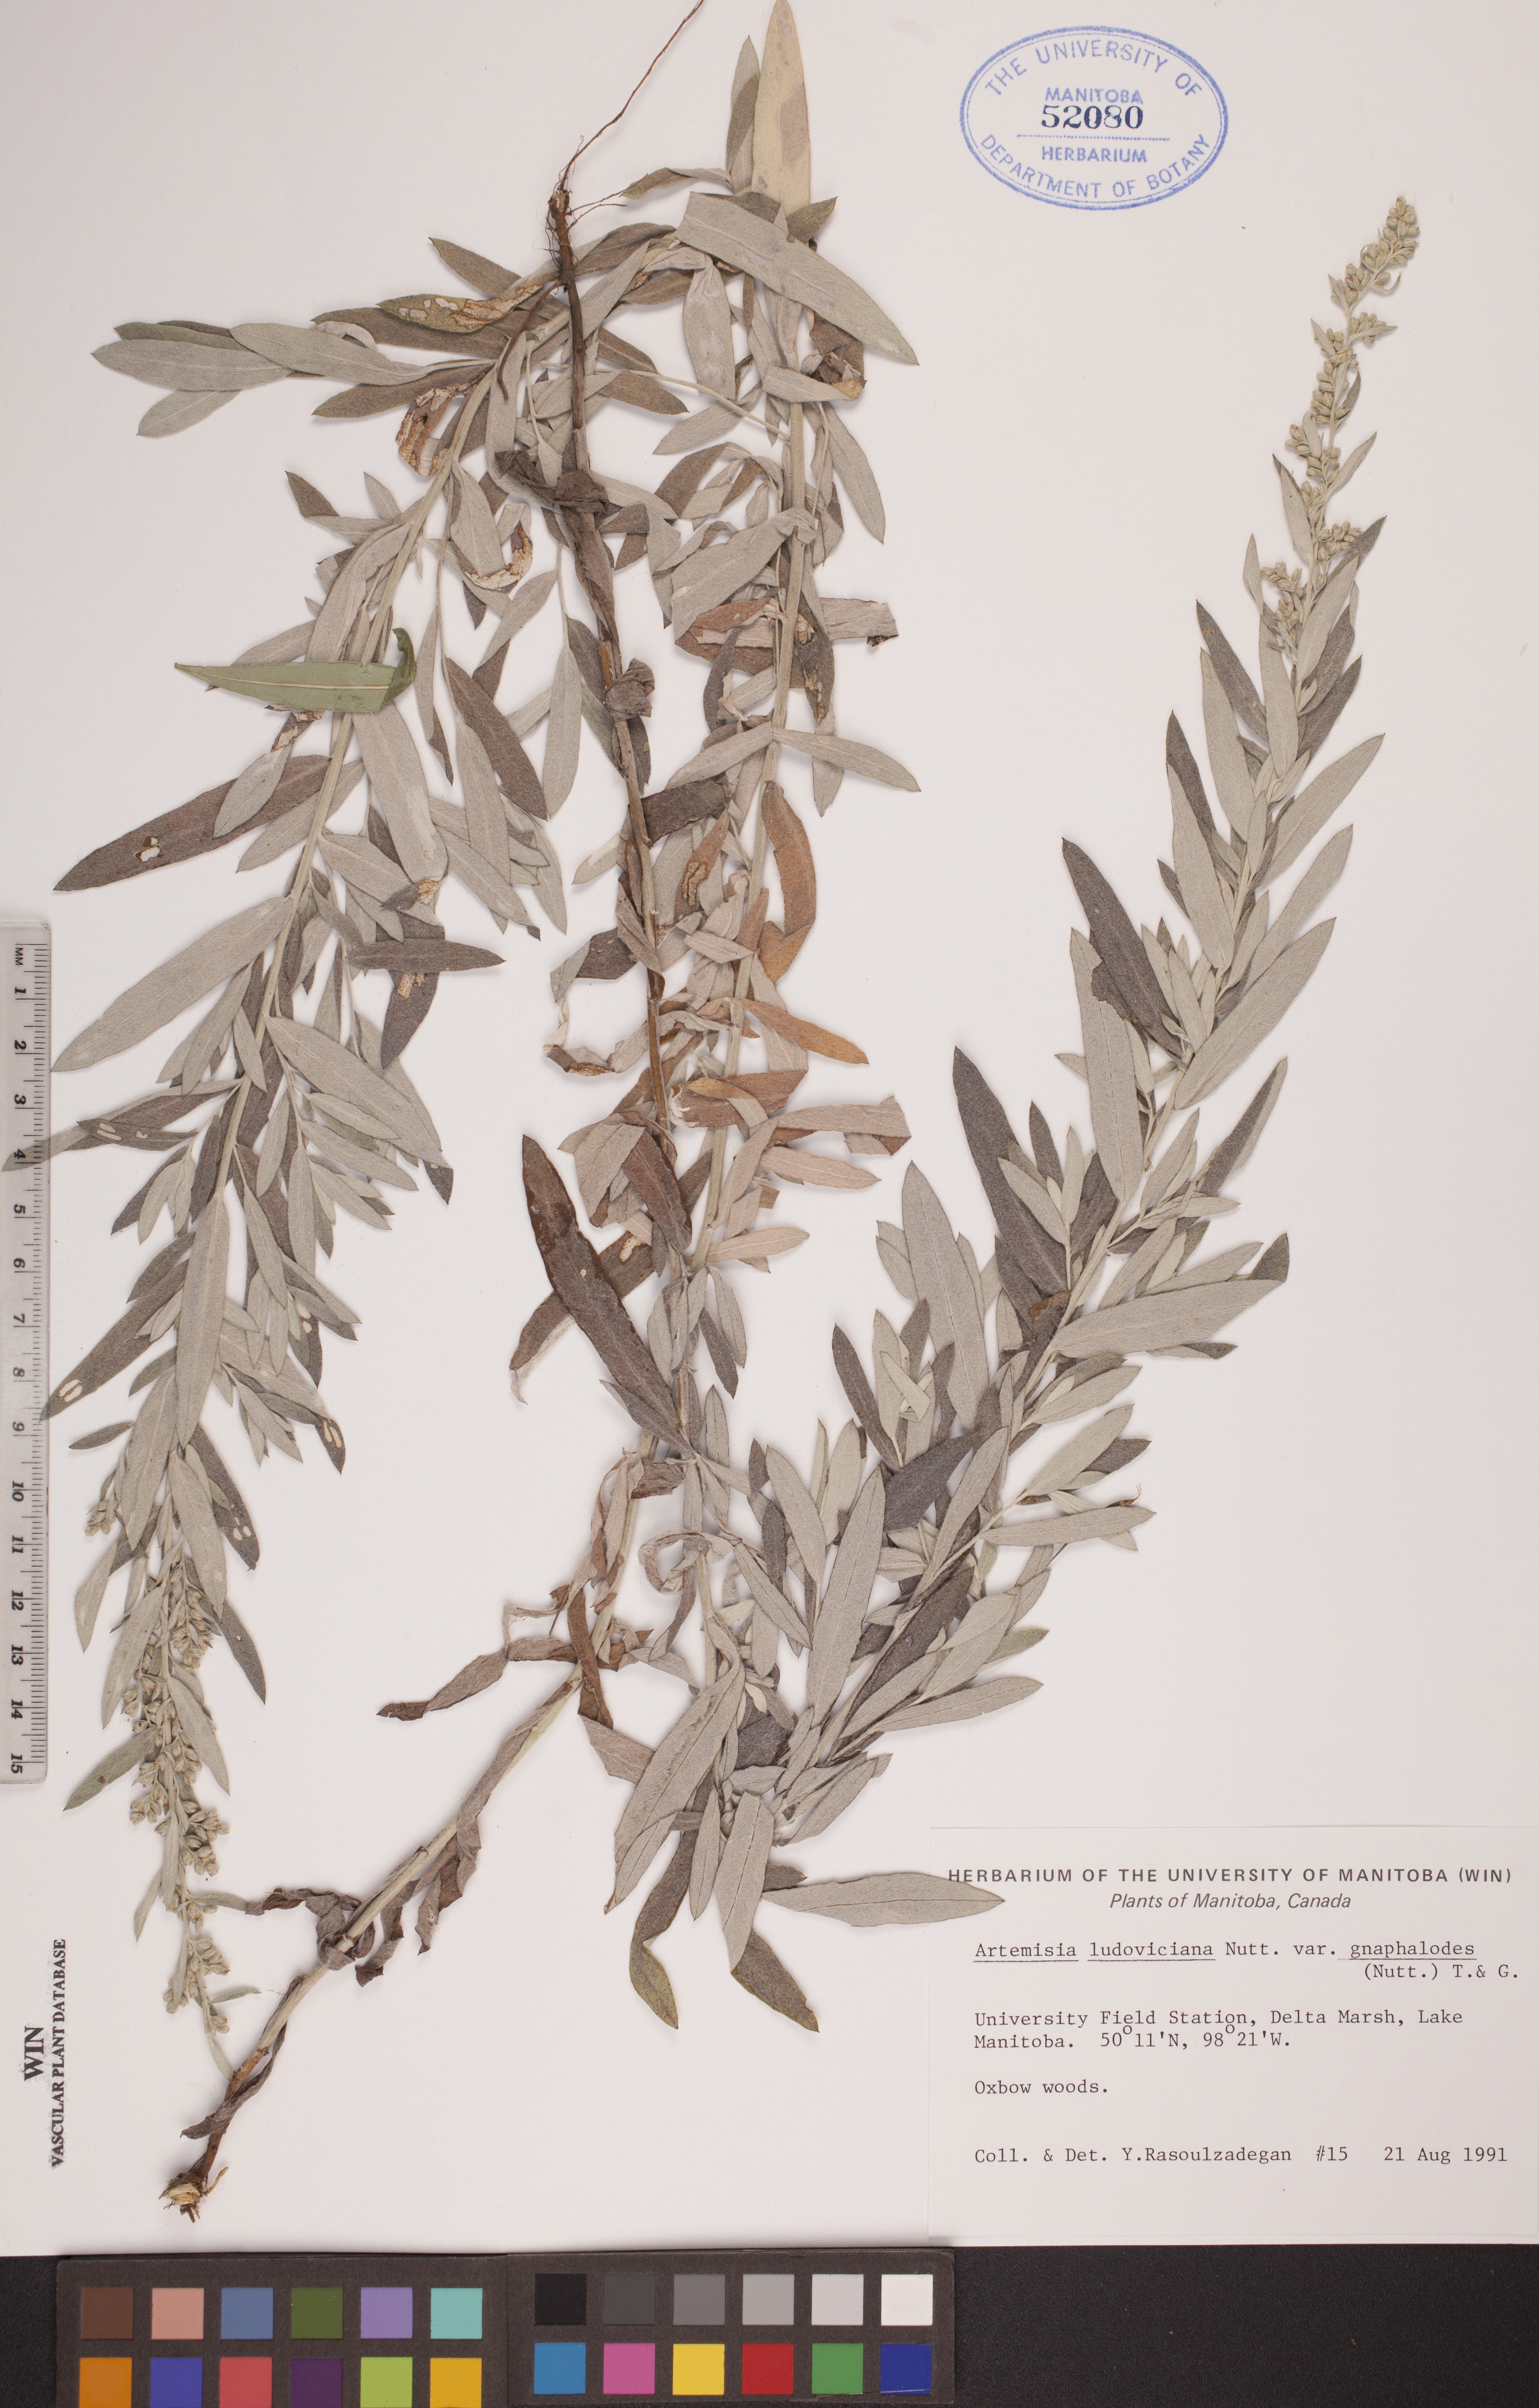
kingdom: Plantae
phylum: Tracheophyta
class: Magnoliopsida
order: Asterales
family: Asteraceae
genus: Artemisia
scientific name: Artemisia ludoviciana
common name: Western mugwort
